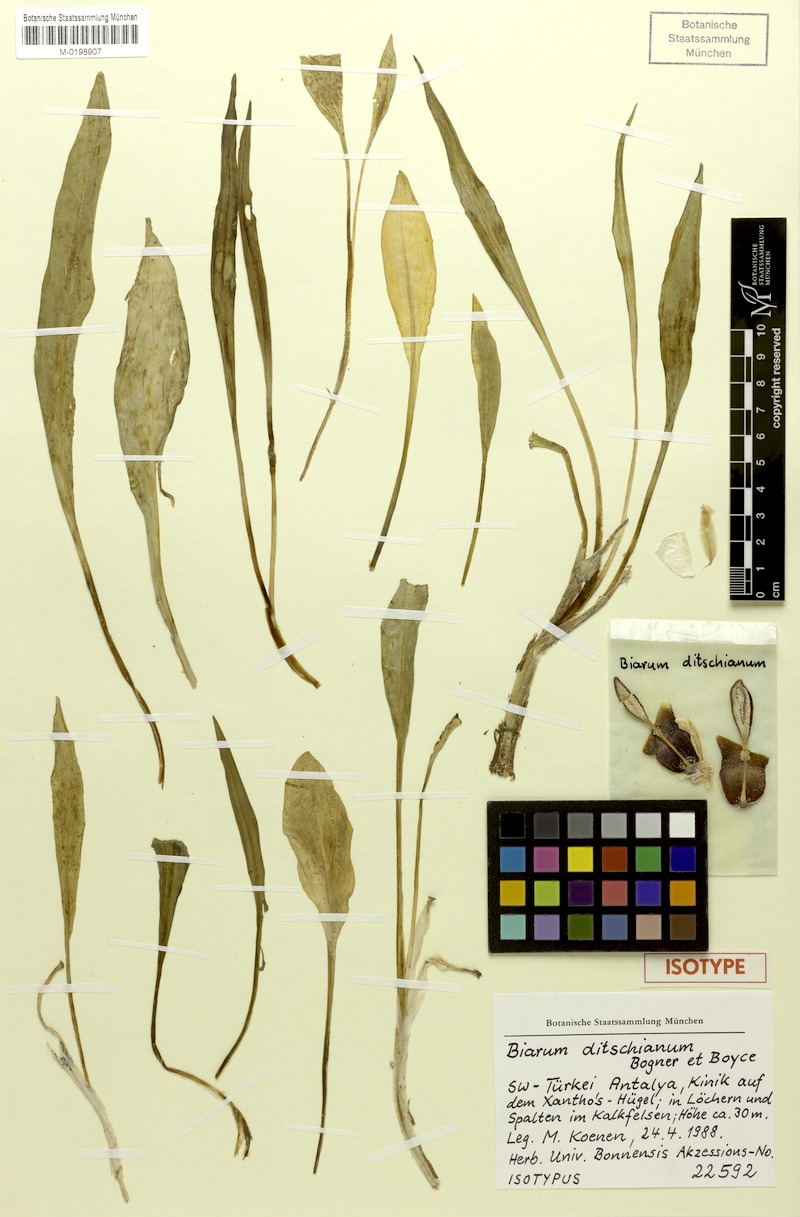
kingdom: Plantae
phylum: Tracheophyta
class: Liliopsida
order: Alismatales
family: Araceae
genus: Biarum
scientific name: Biarum ditschianum
